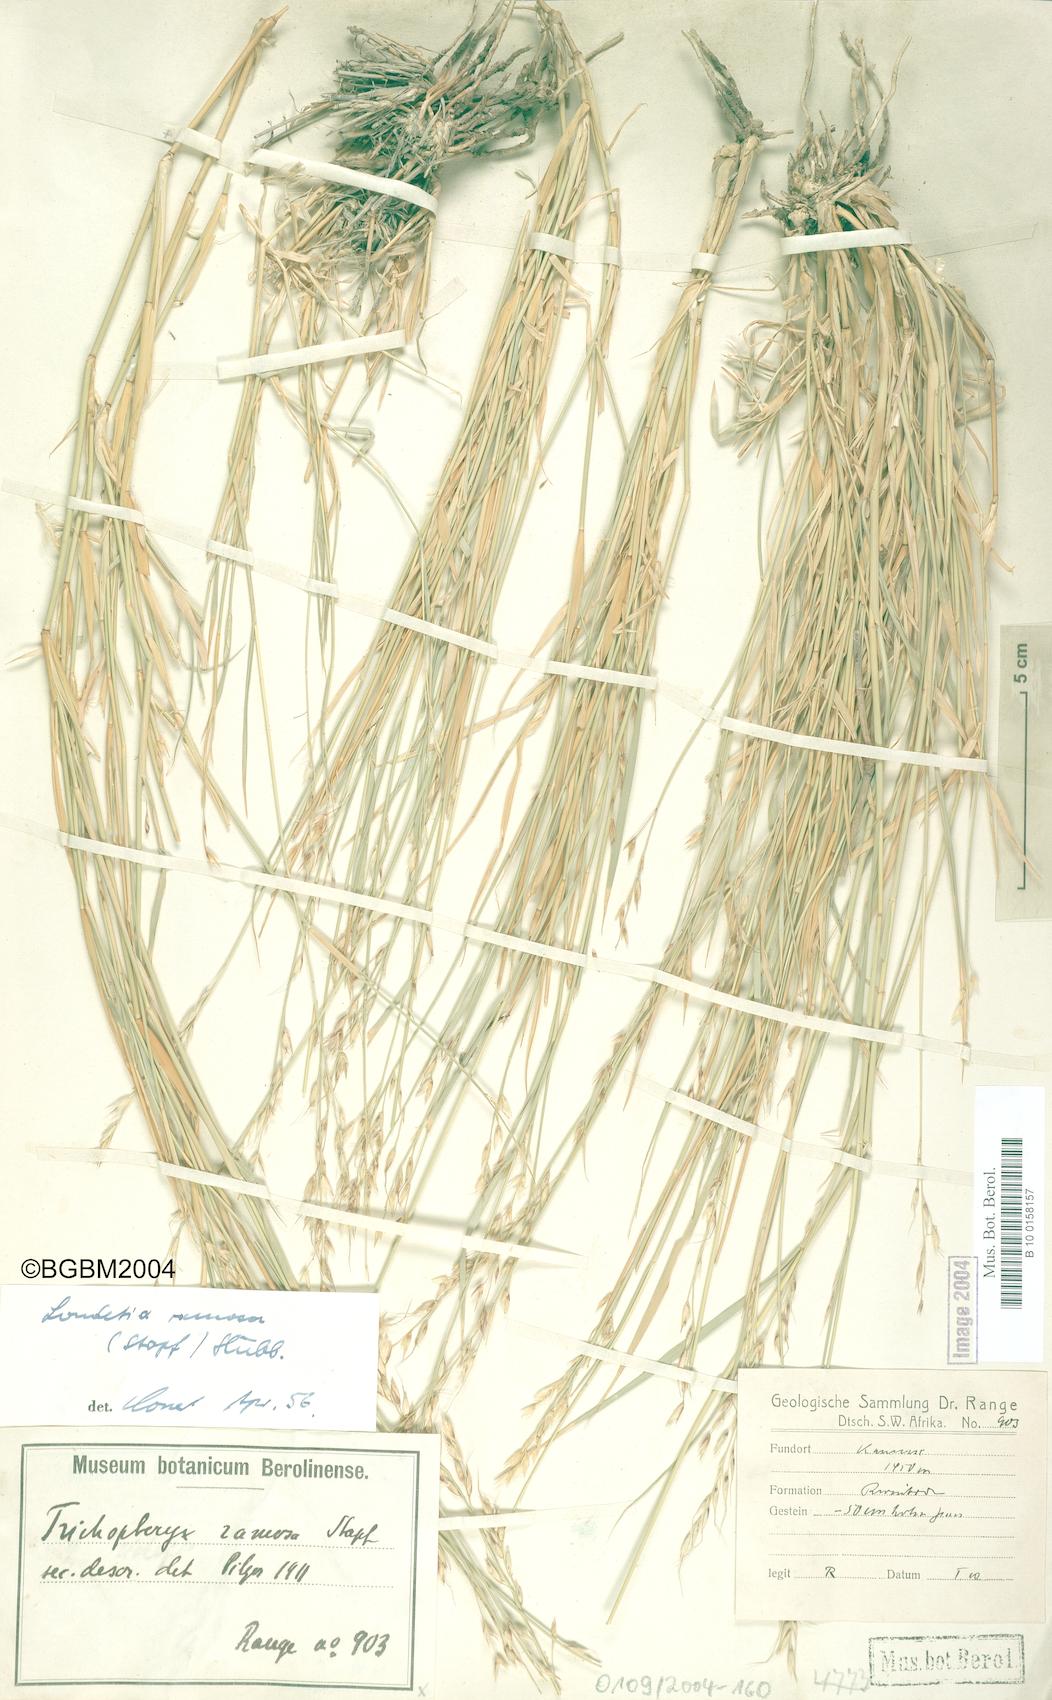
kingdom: Plantae
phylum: Tracheophyta
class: Liliopsida
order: Poales
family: Poaceae
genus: Danthoniopsis
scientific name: Danthoniopsis ramosa
